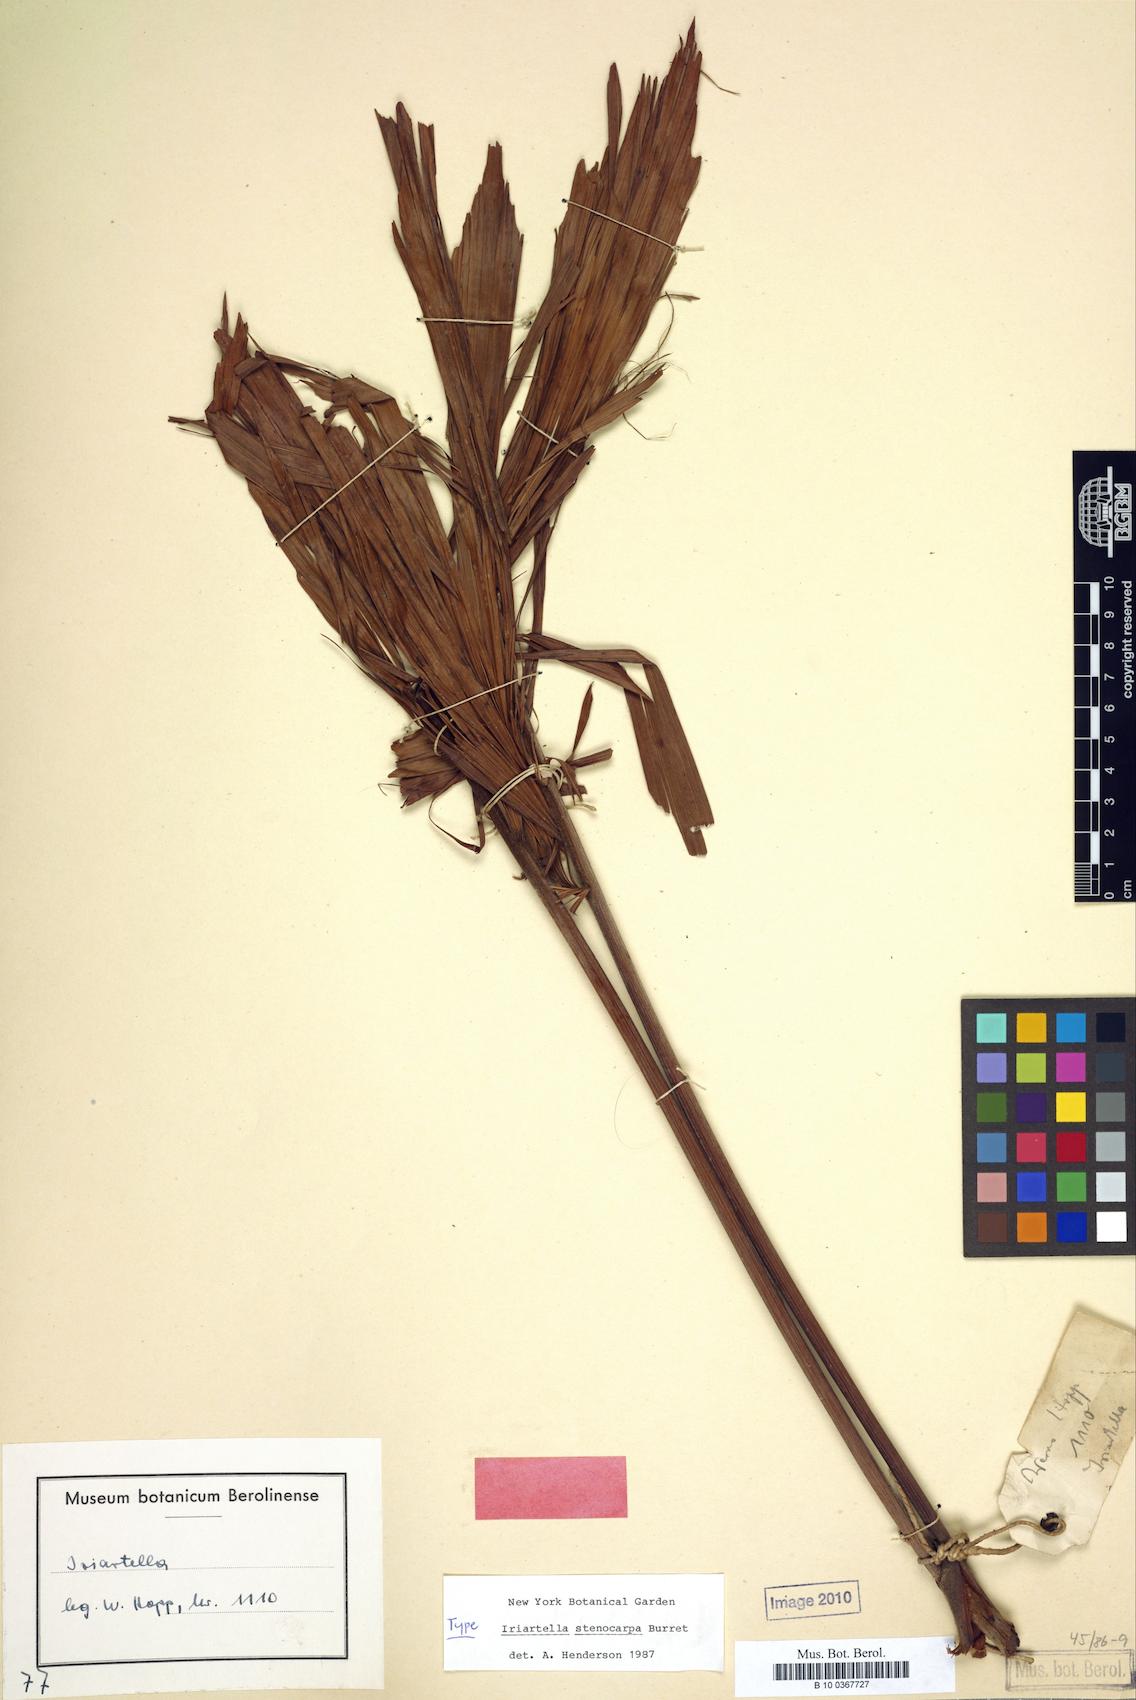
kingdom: Plantae
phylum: Tracheophyta
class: Liliopsida
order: Arecales
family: Arecaceae
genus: Iriartella
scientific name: Iriartella stenocarpa
